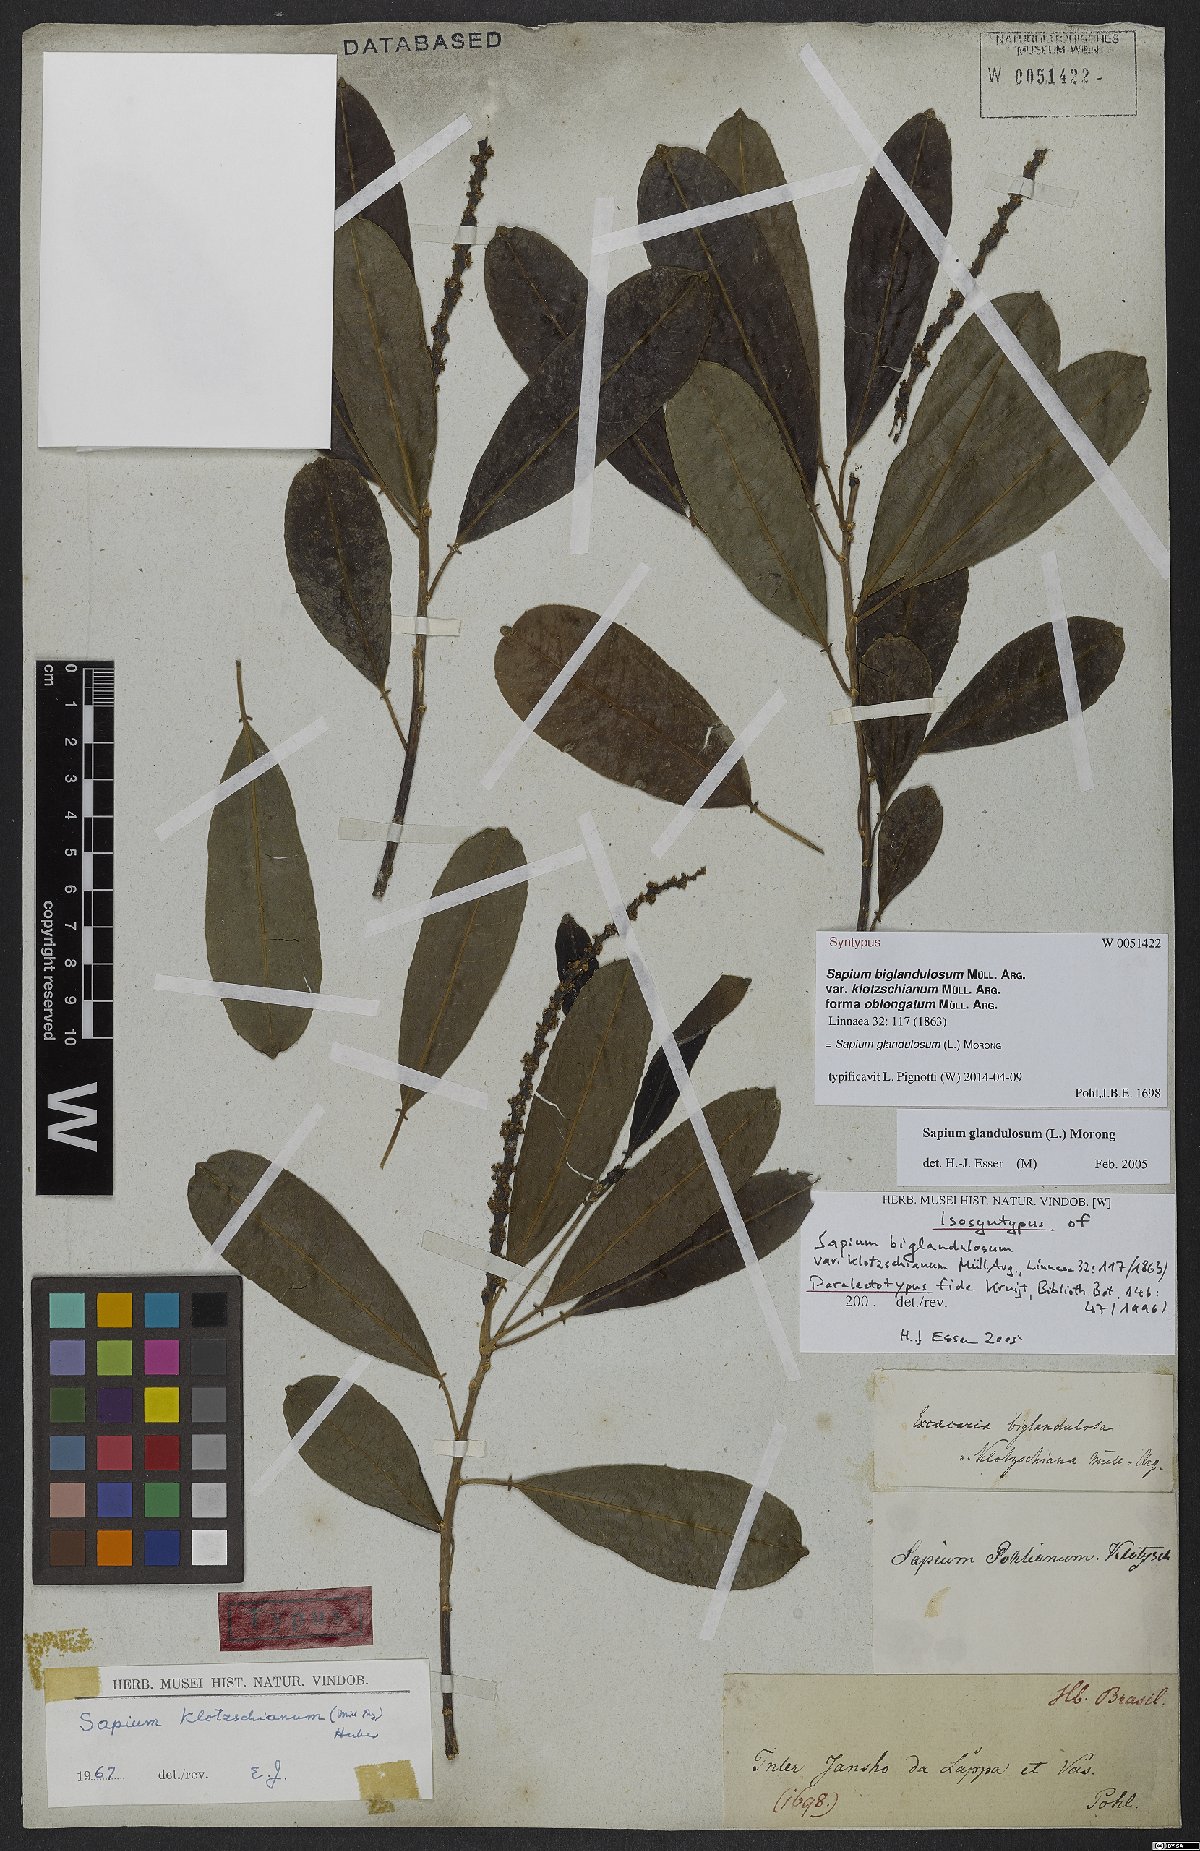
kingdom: Plantae
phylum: Tracheophyta
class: Magnoliopsida
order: Malpighiales
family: Euphorbiaceae
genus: Sapium
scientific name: Sapium glandulosum
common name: Milktree
